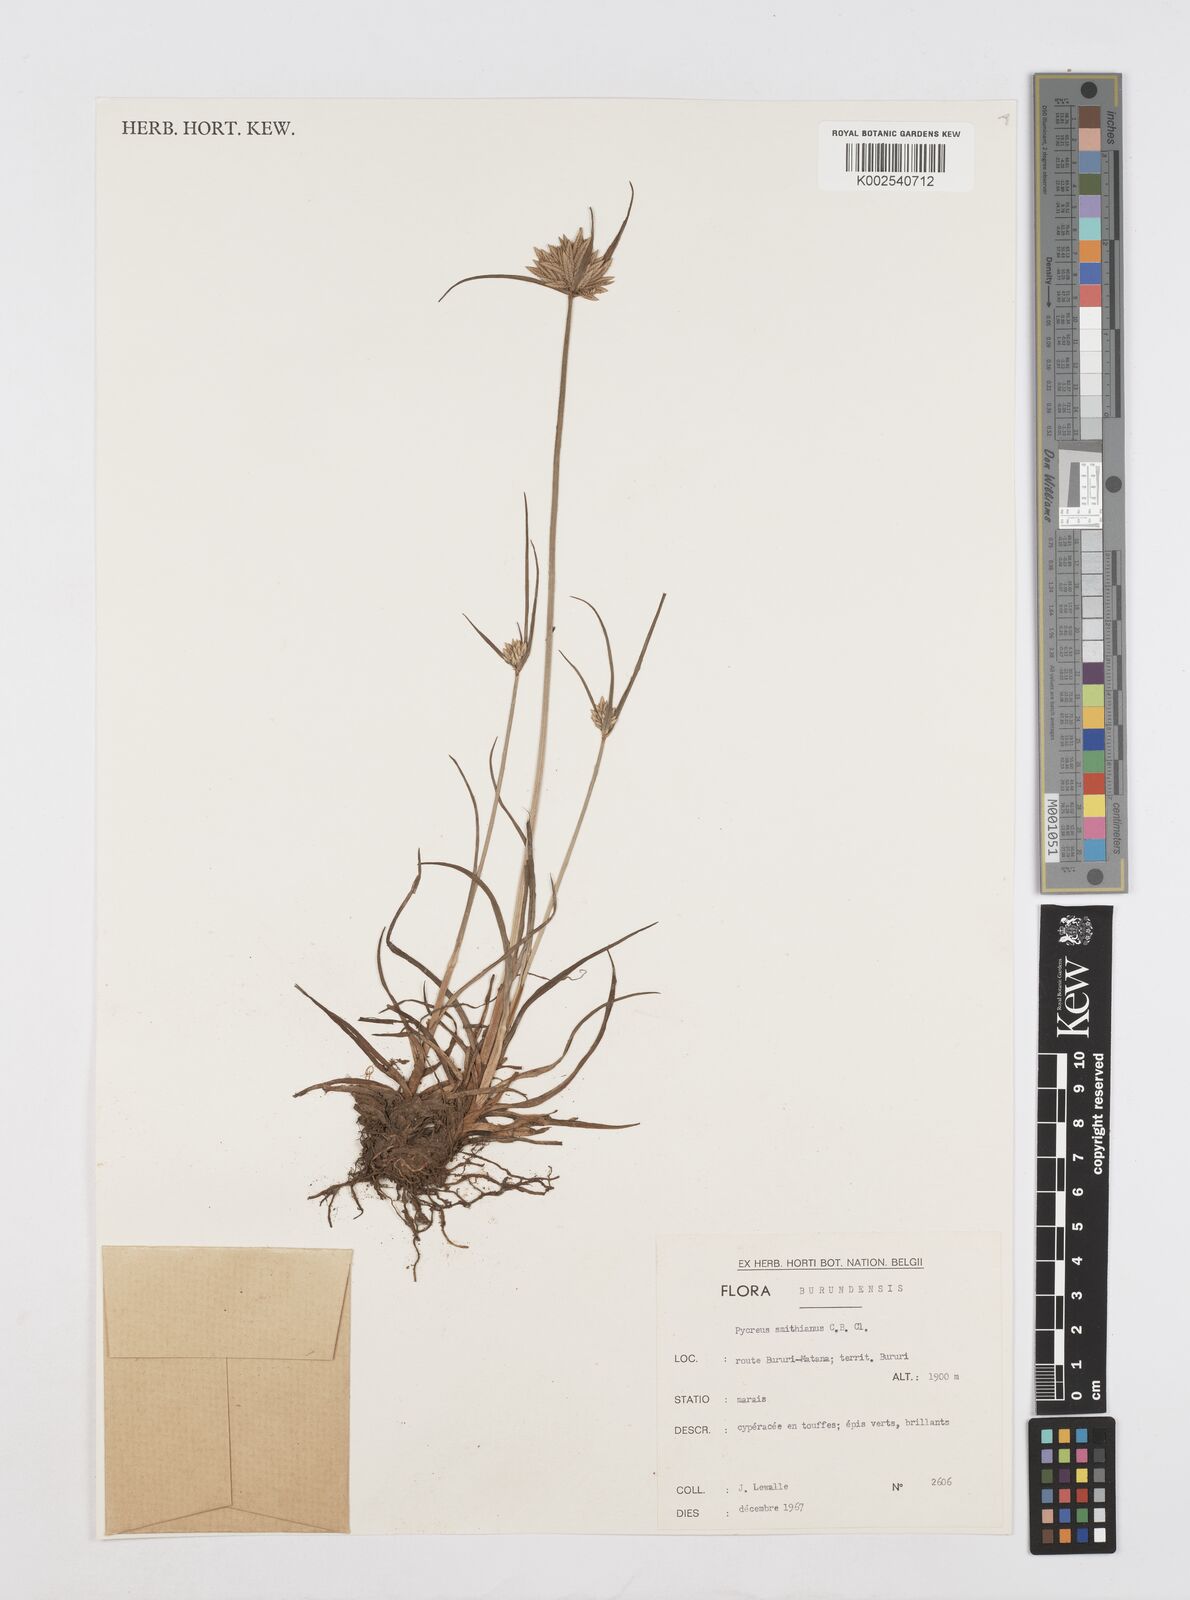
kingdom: Plantae
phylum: Tracheophyta
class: Liliopsida
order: Poales
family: Cyperaceae
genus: Cyperus
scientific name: Cyperus smithianus
